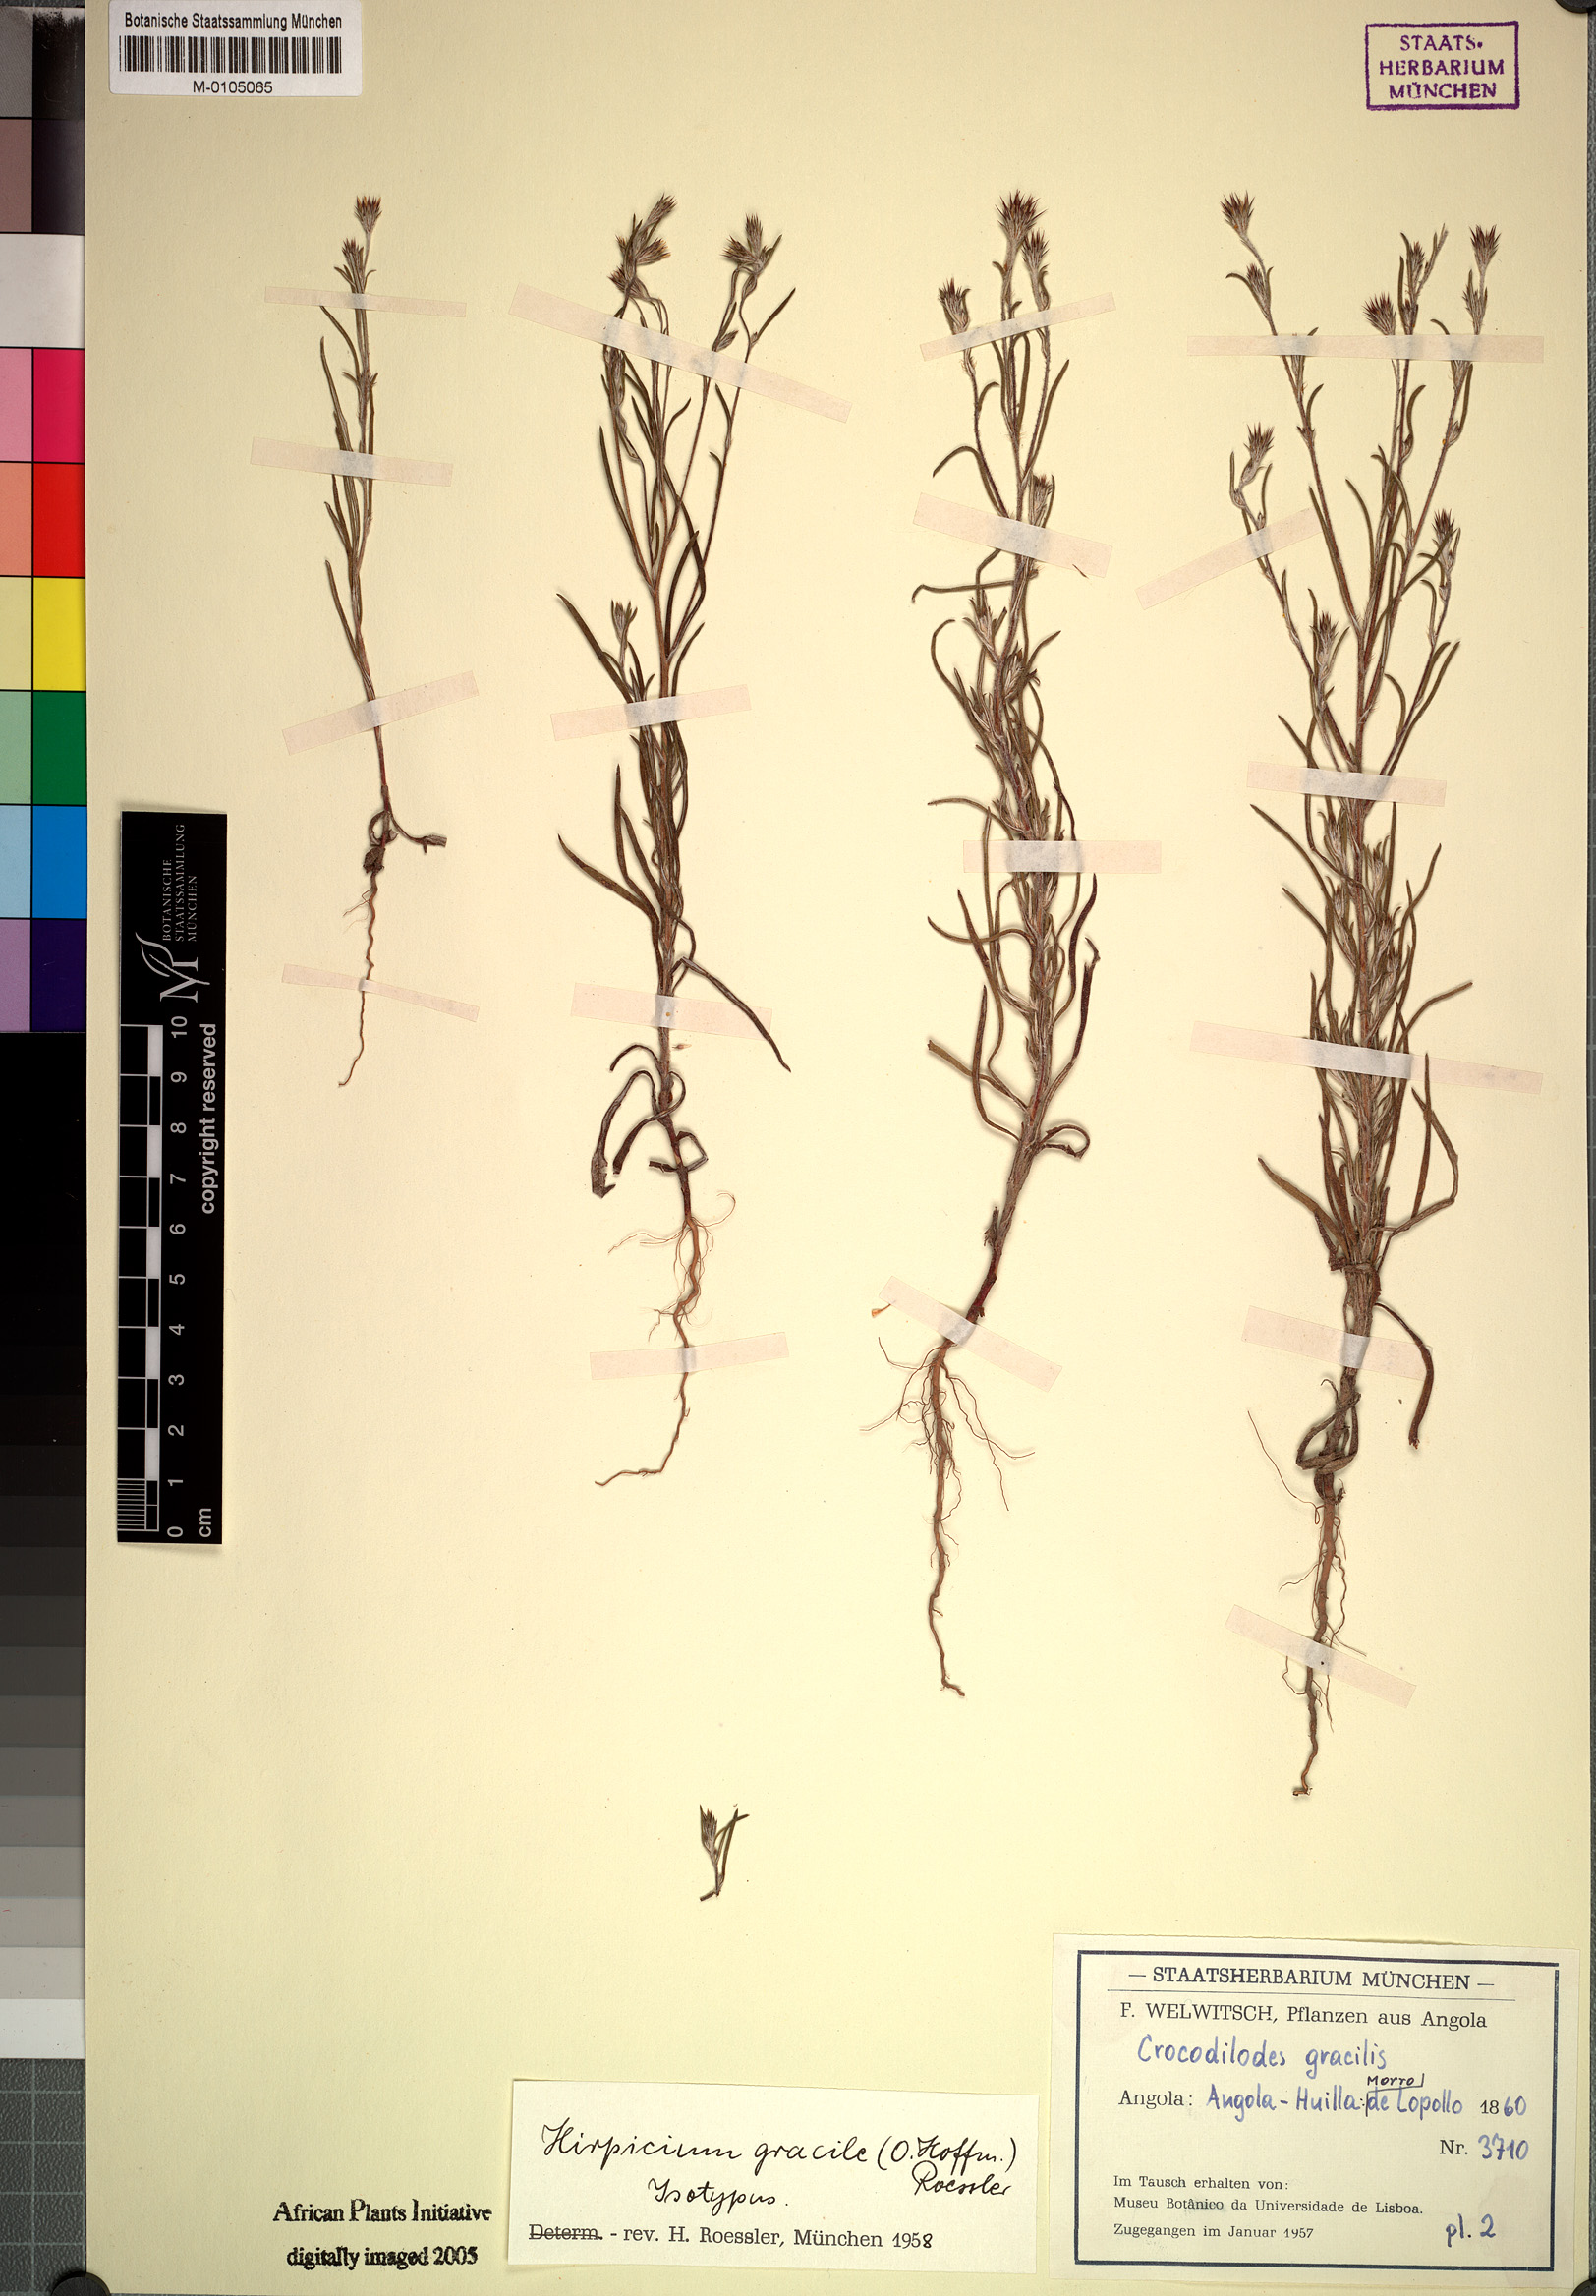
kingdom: Plantae
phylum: Tracheophyta
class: Magnoliopsida
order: Asterales
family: Asteraceae
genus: Gorteria
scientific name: Gorteria gracilis
